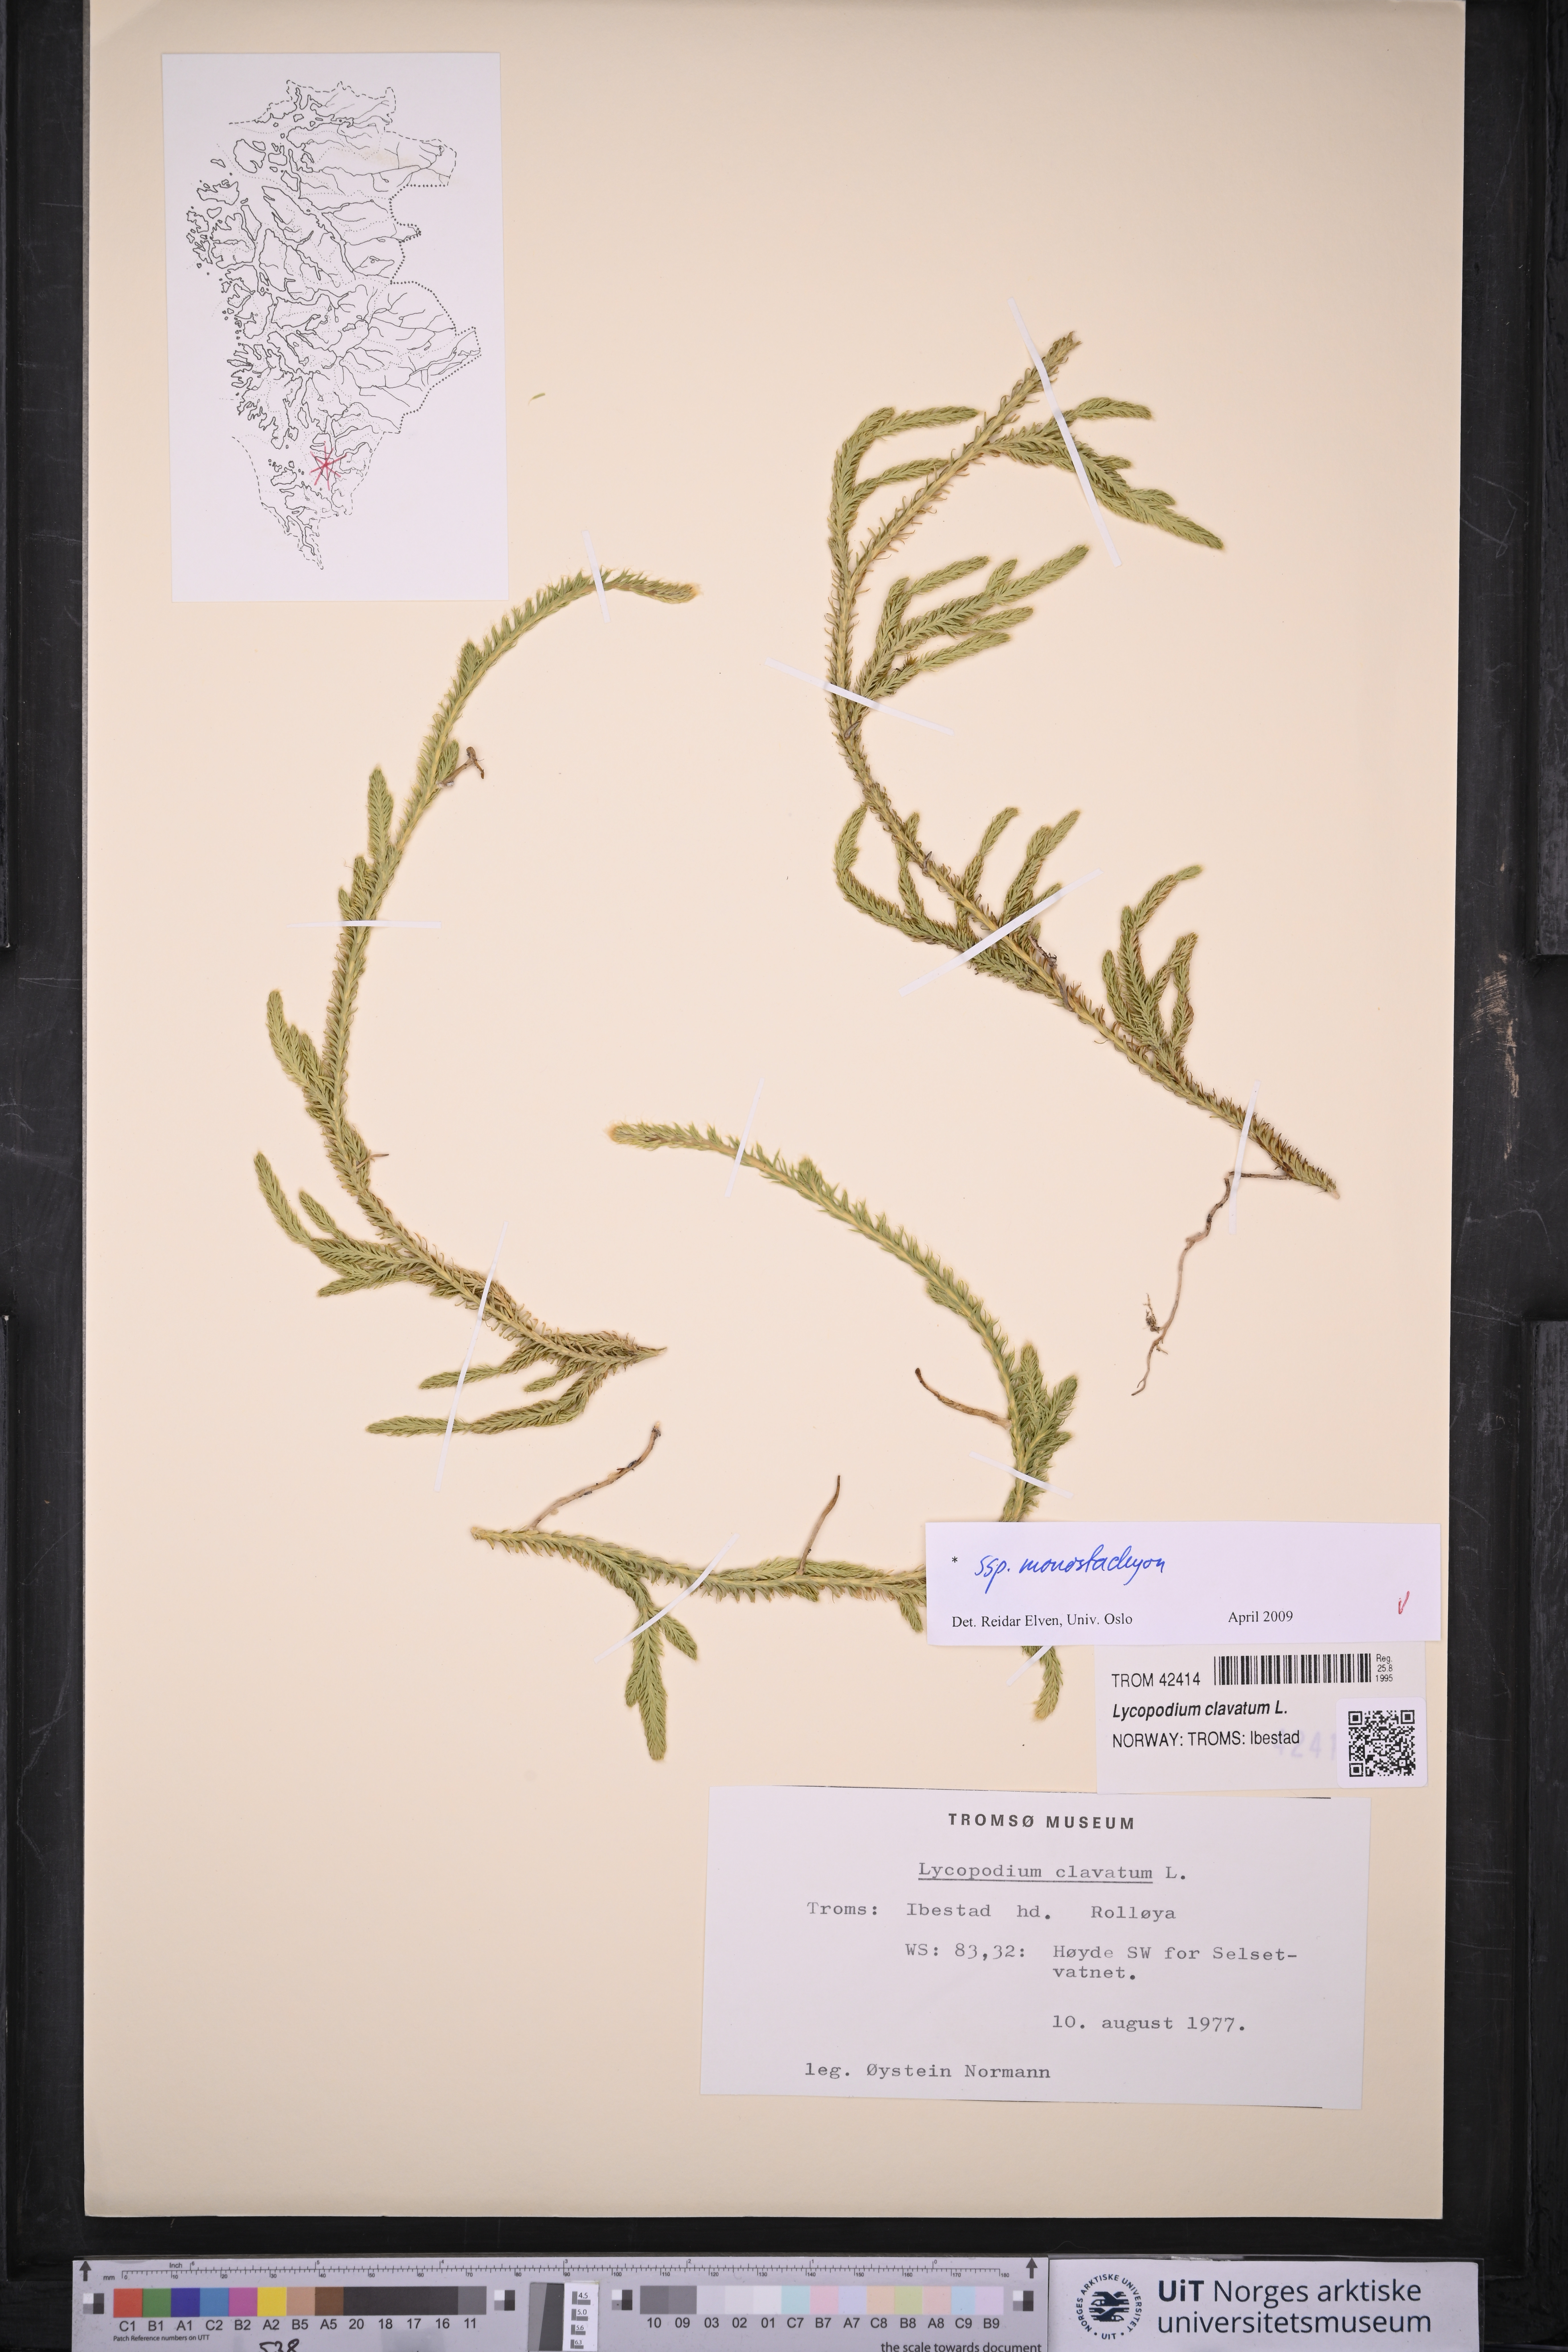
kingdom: Plantae
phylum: Tracheophyta
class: Lycopodiopsida
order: Lycopodiales
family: Lycopodiaceae
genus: Lycopodium
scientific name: Lycopodium lagopus
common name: One-cone clubmoss
